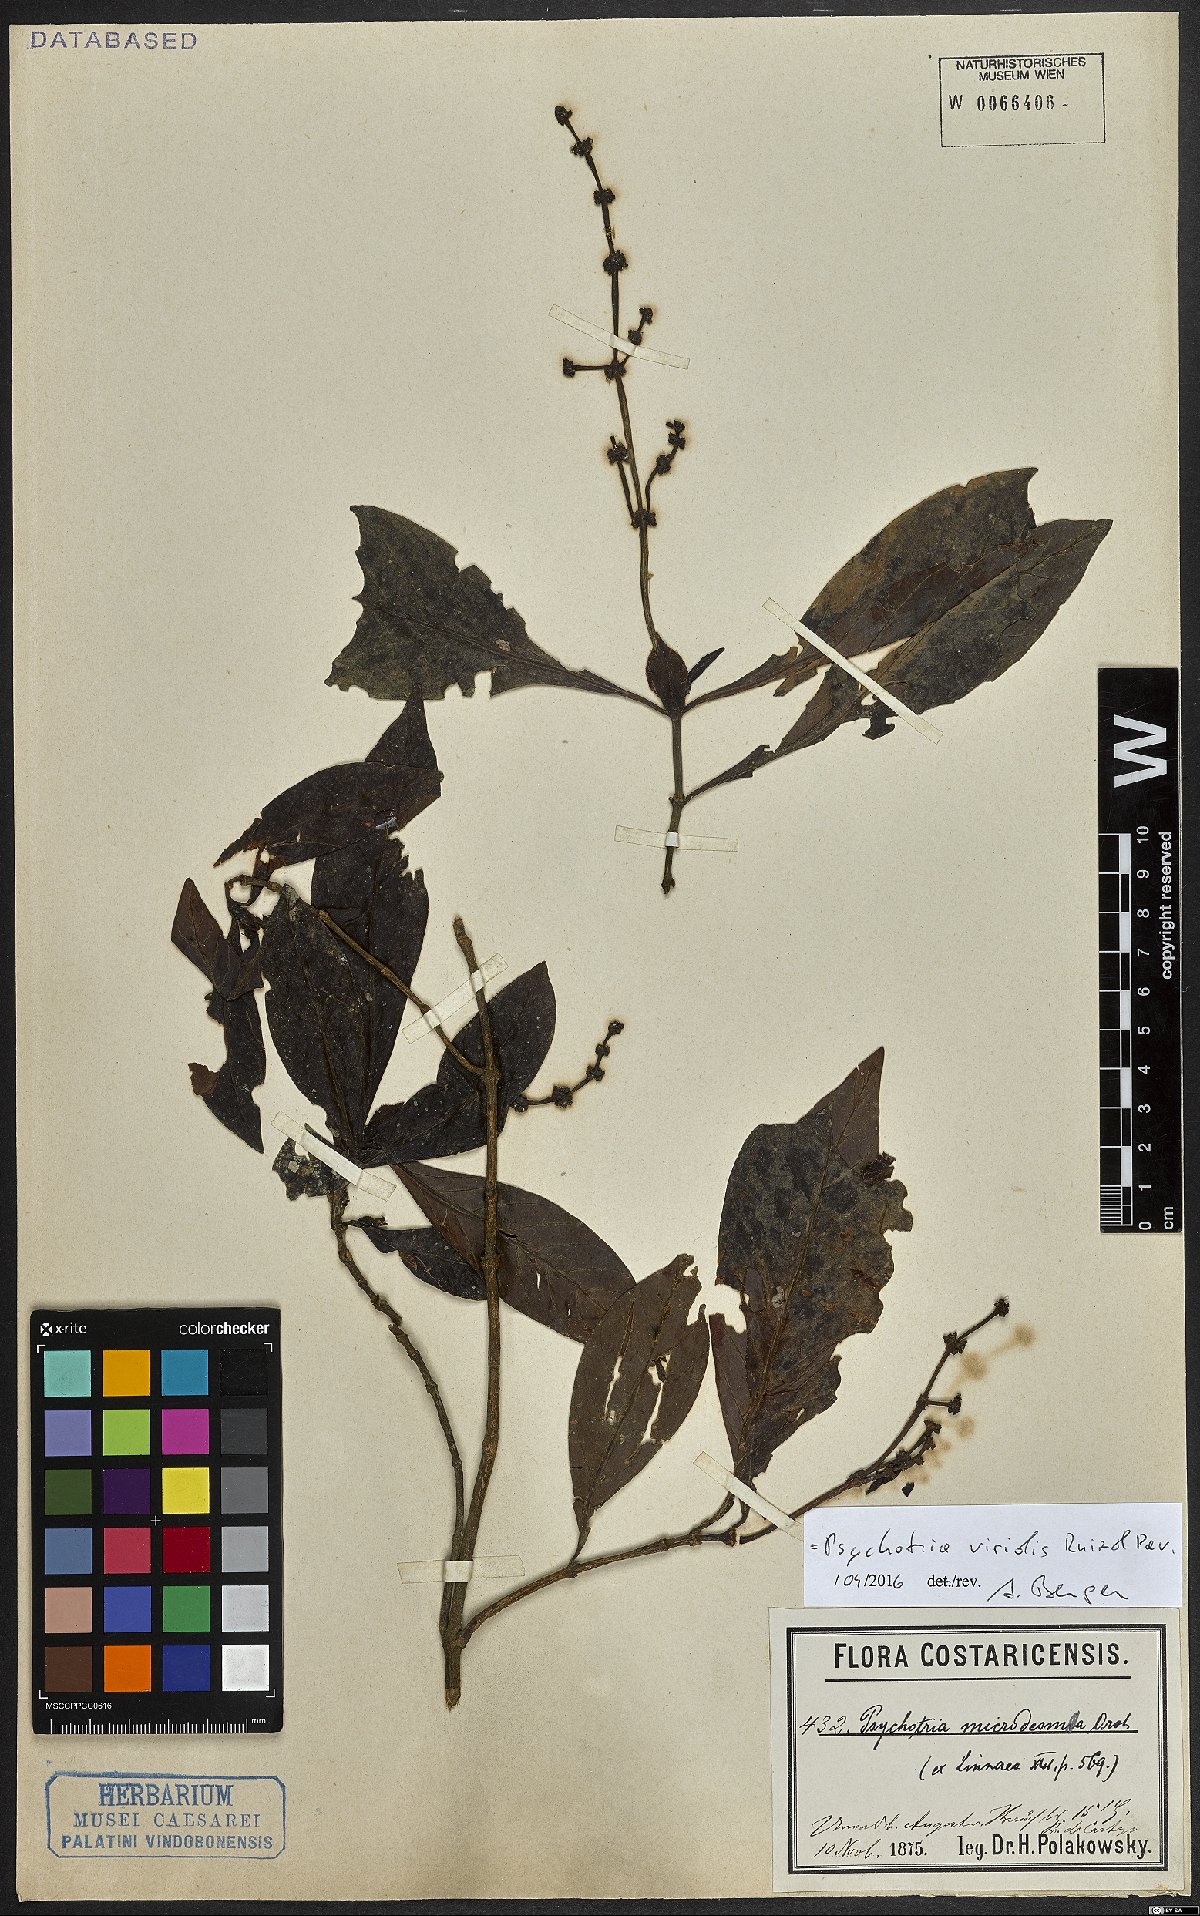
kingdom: Plantae
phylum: Tracheophyta
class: Magnoliopsida
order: Gentianales
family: Rubiaceae
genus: Psychotria
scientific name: Psychotria viridis
